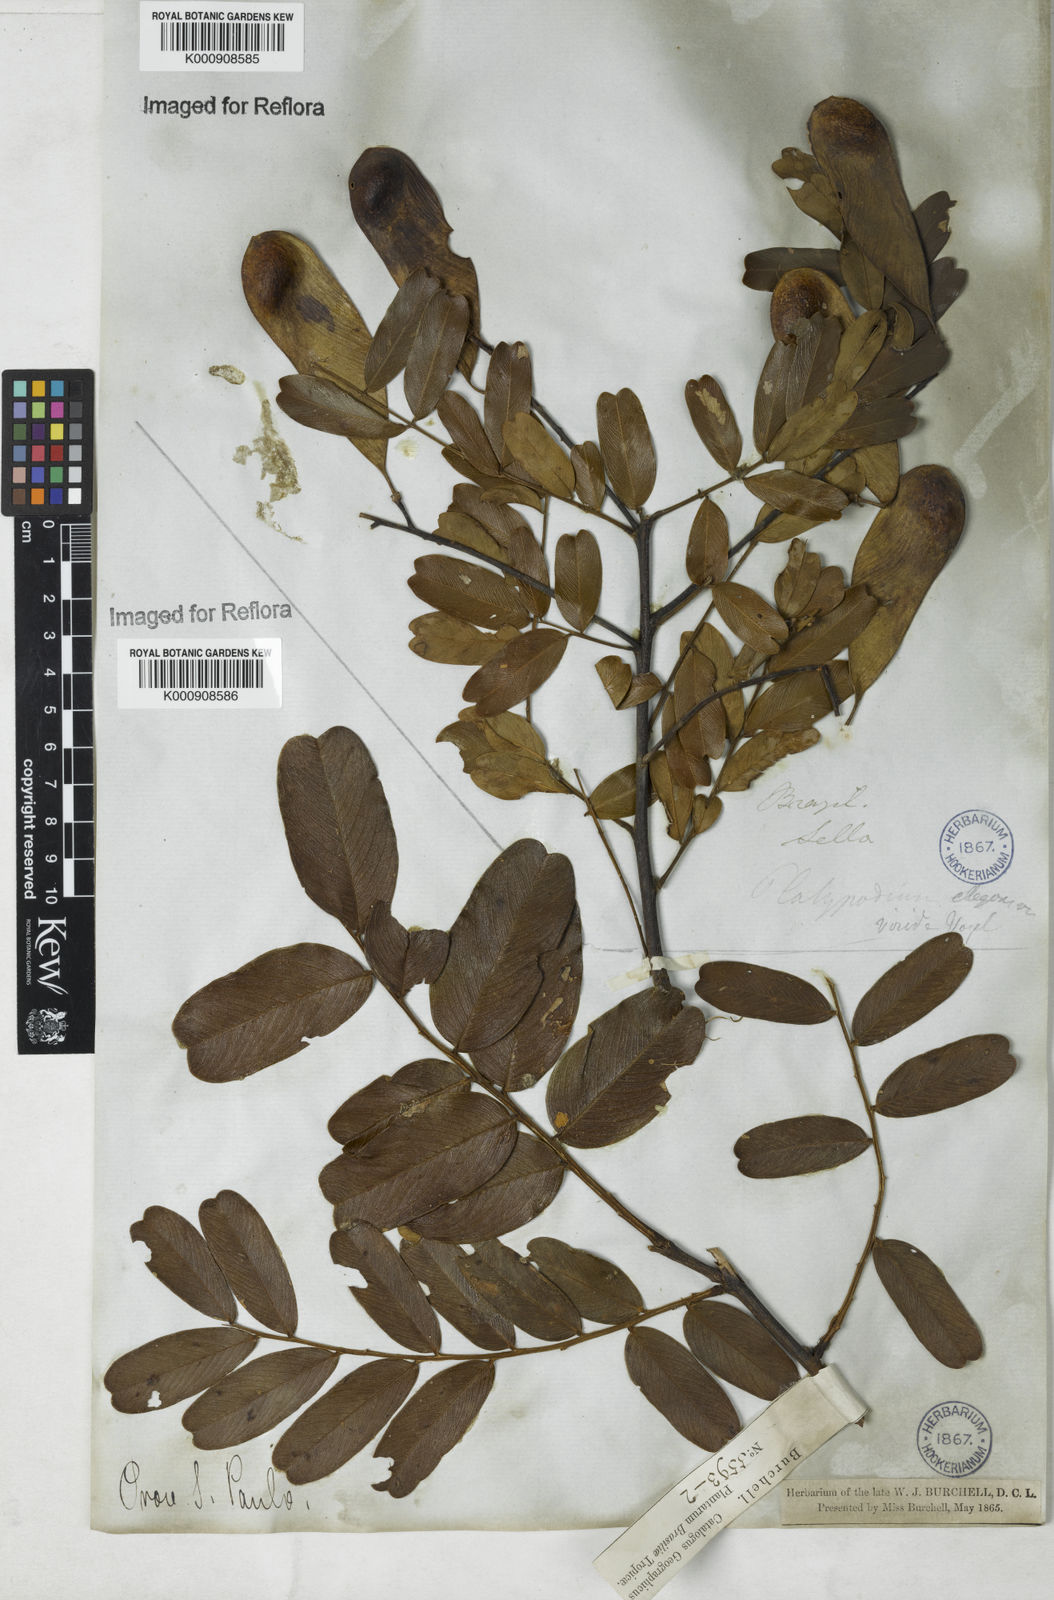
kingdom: Plantae
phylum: Tracheophyta
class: Magnoliopsida
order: Fabales
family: Fabaceae
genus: Platypodium
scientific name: Platypodium
